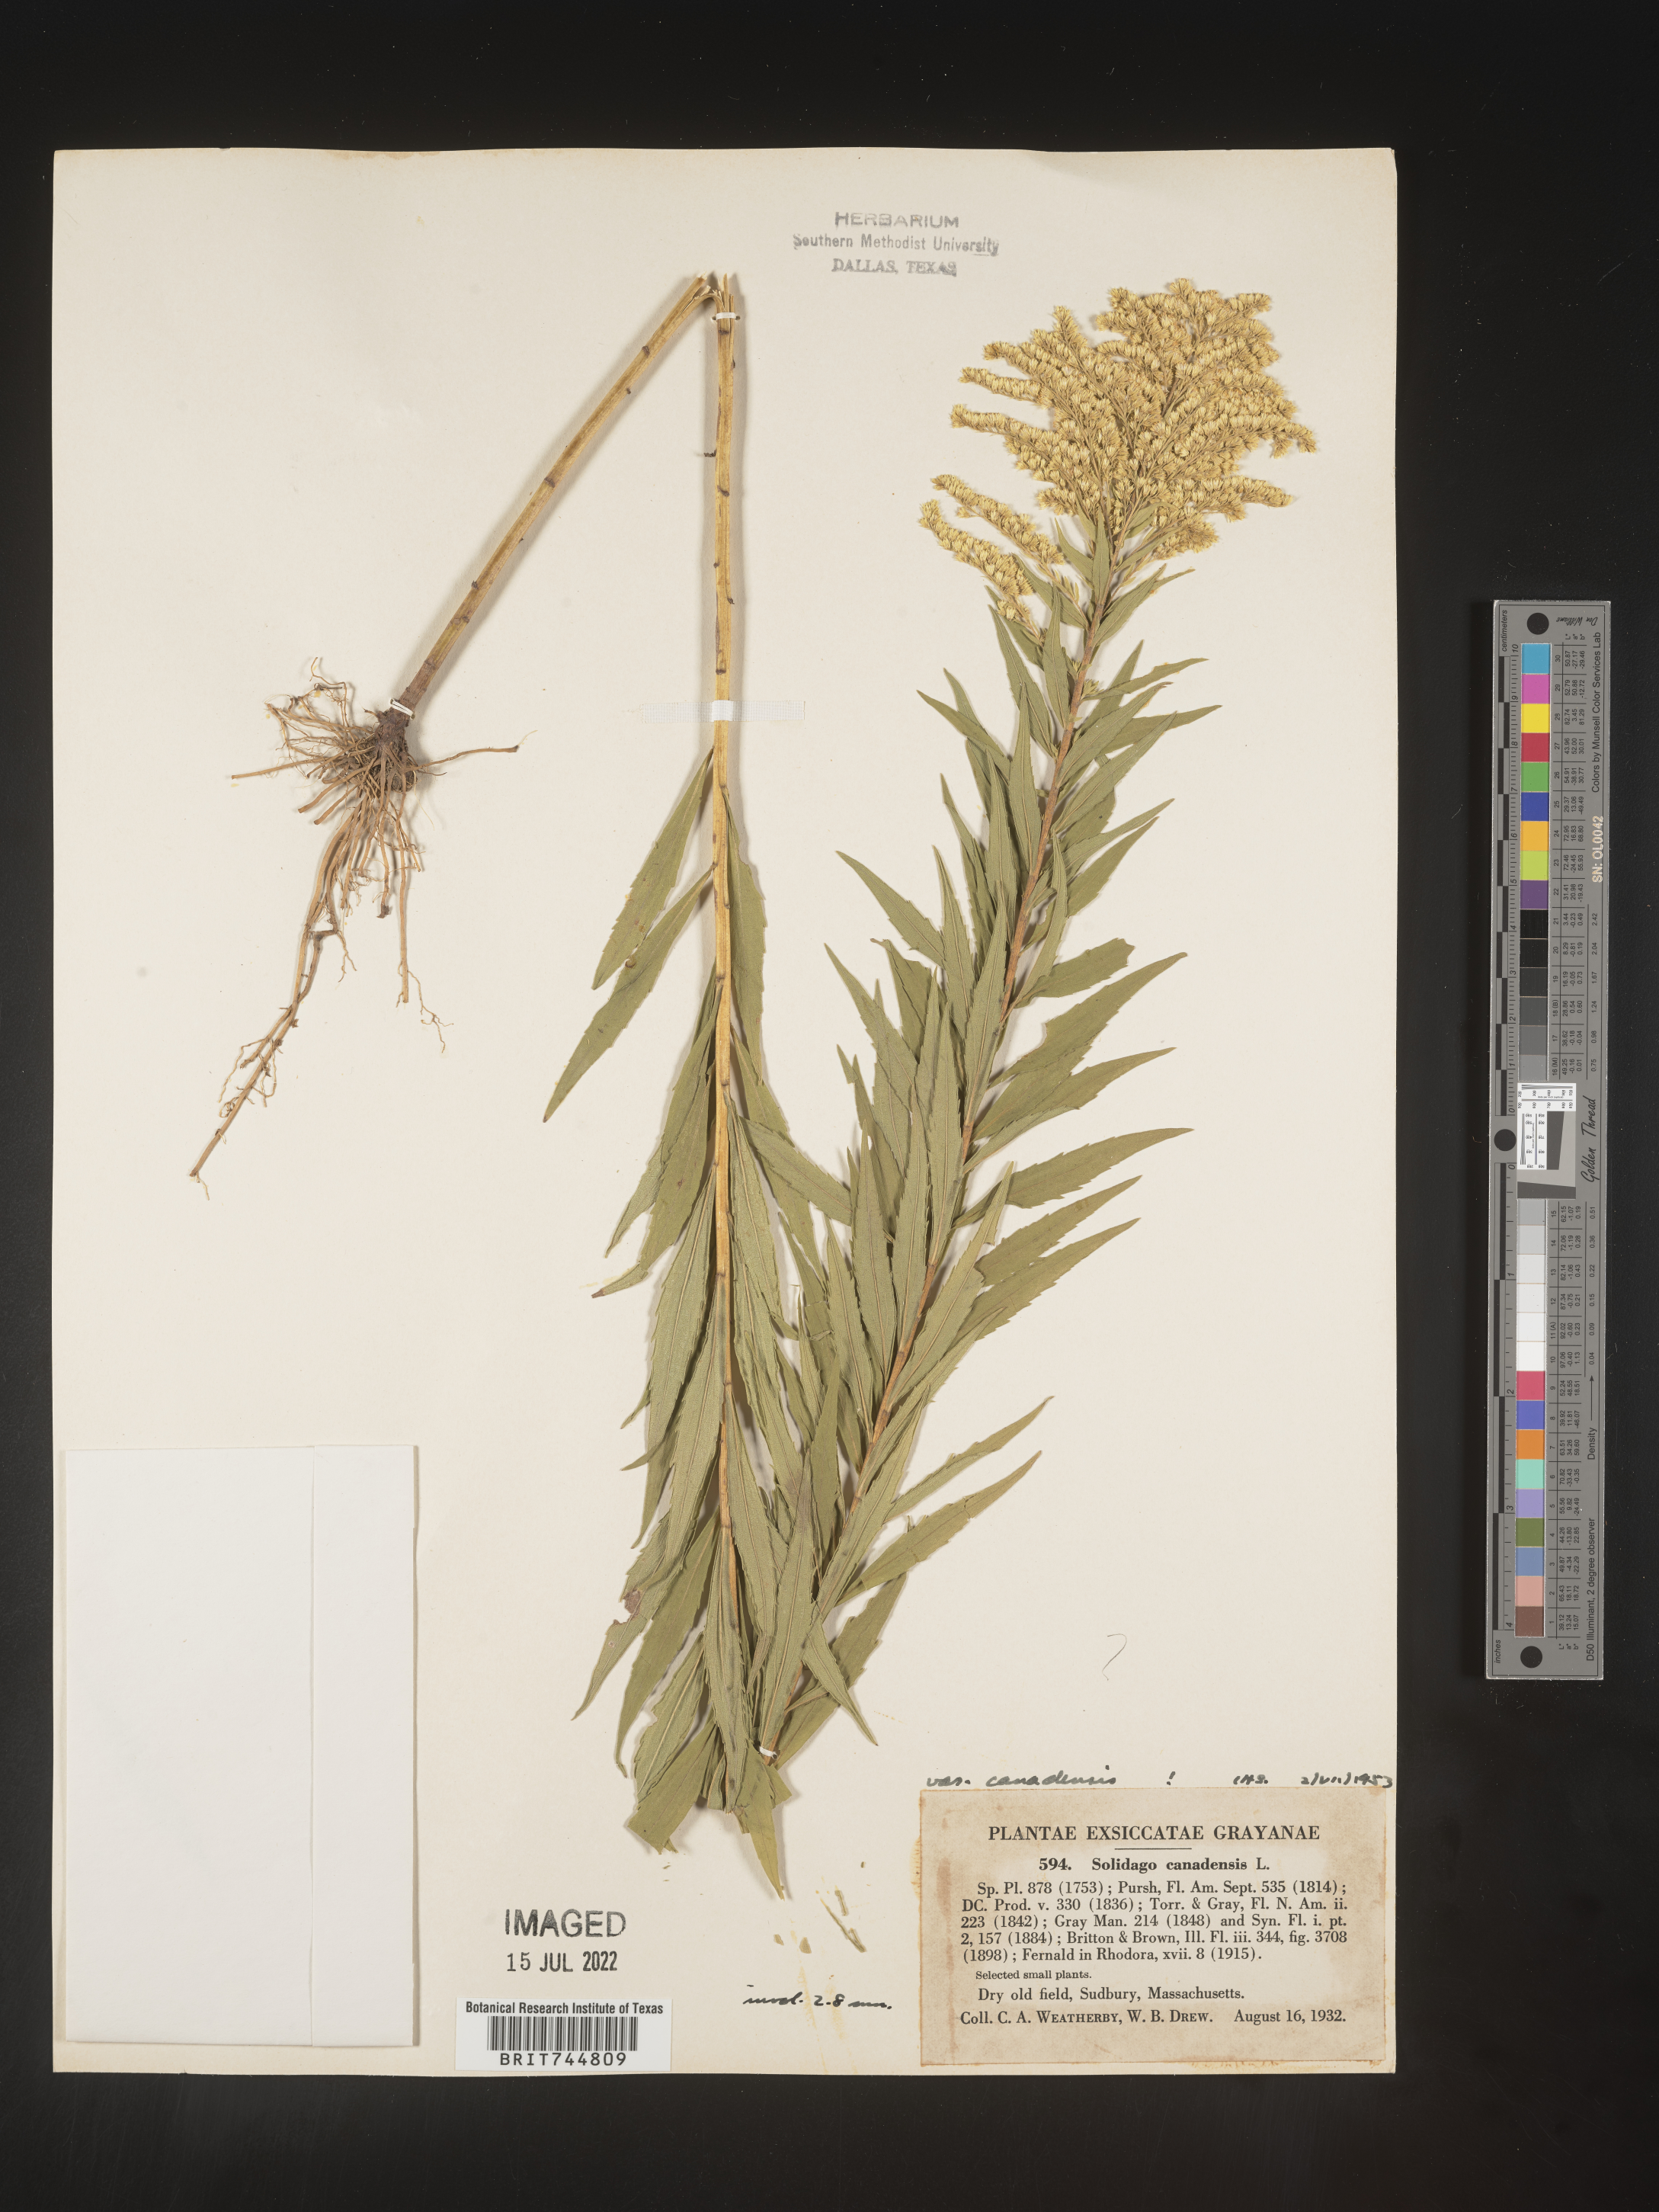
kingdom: Plantae
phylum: Tracheophyta
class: Magnoliopsida
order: Asterales
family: Asteraceae
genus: Solidago
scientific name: Solidago canadensis
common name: Canada goldenrod
